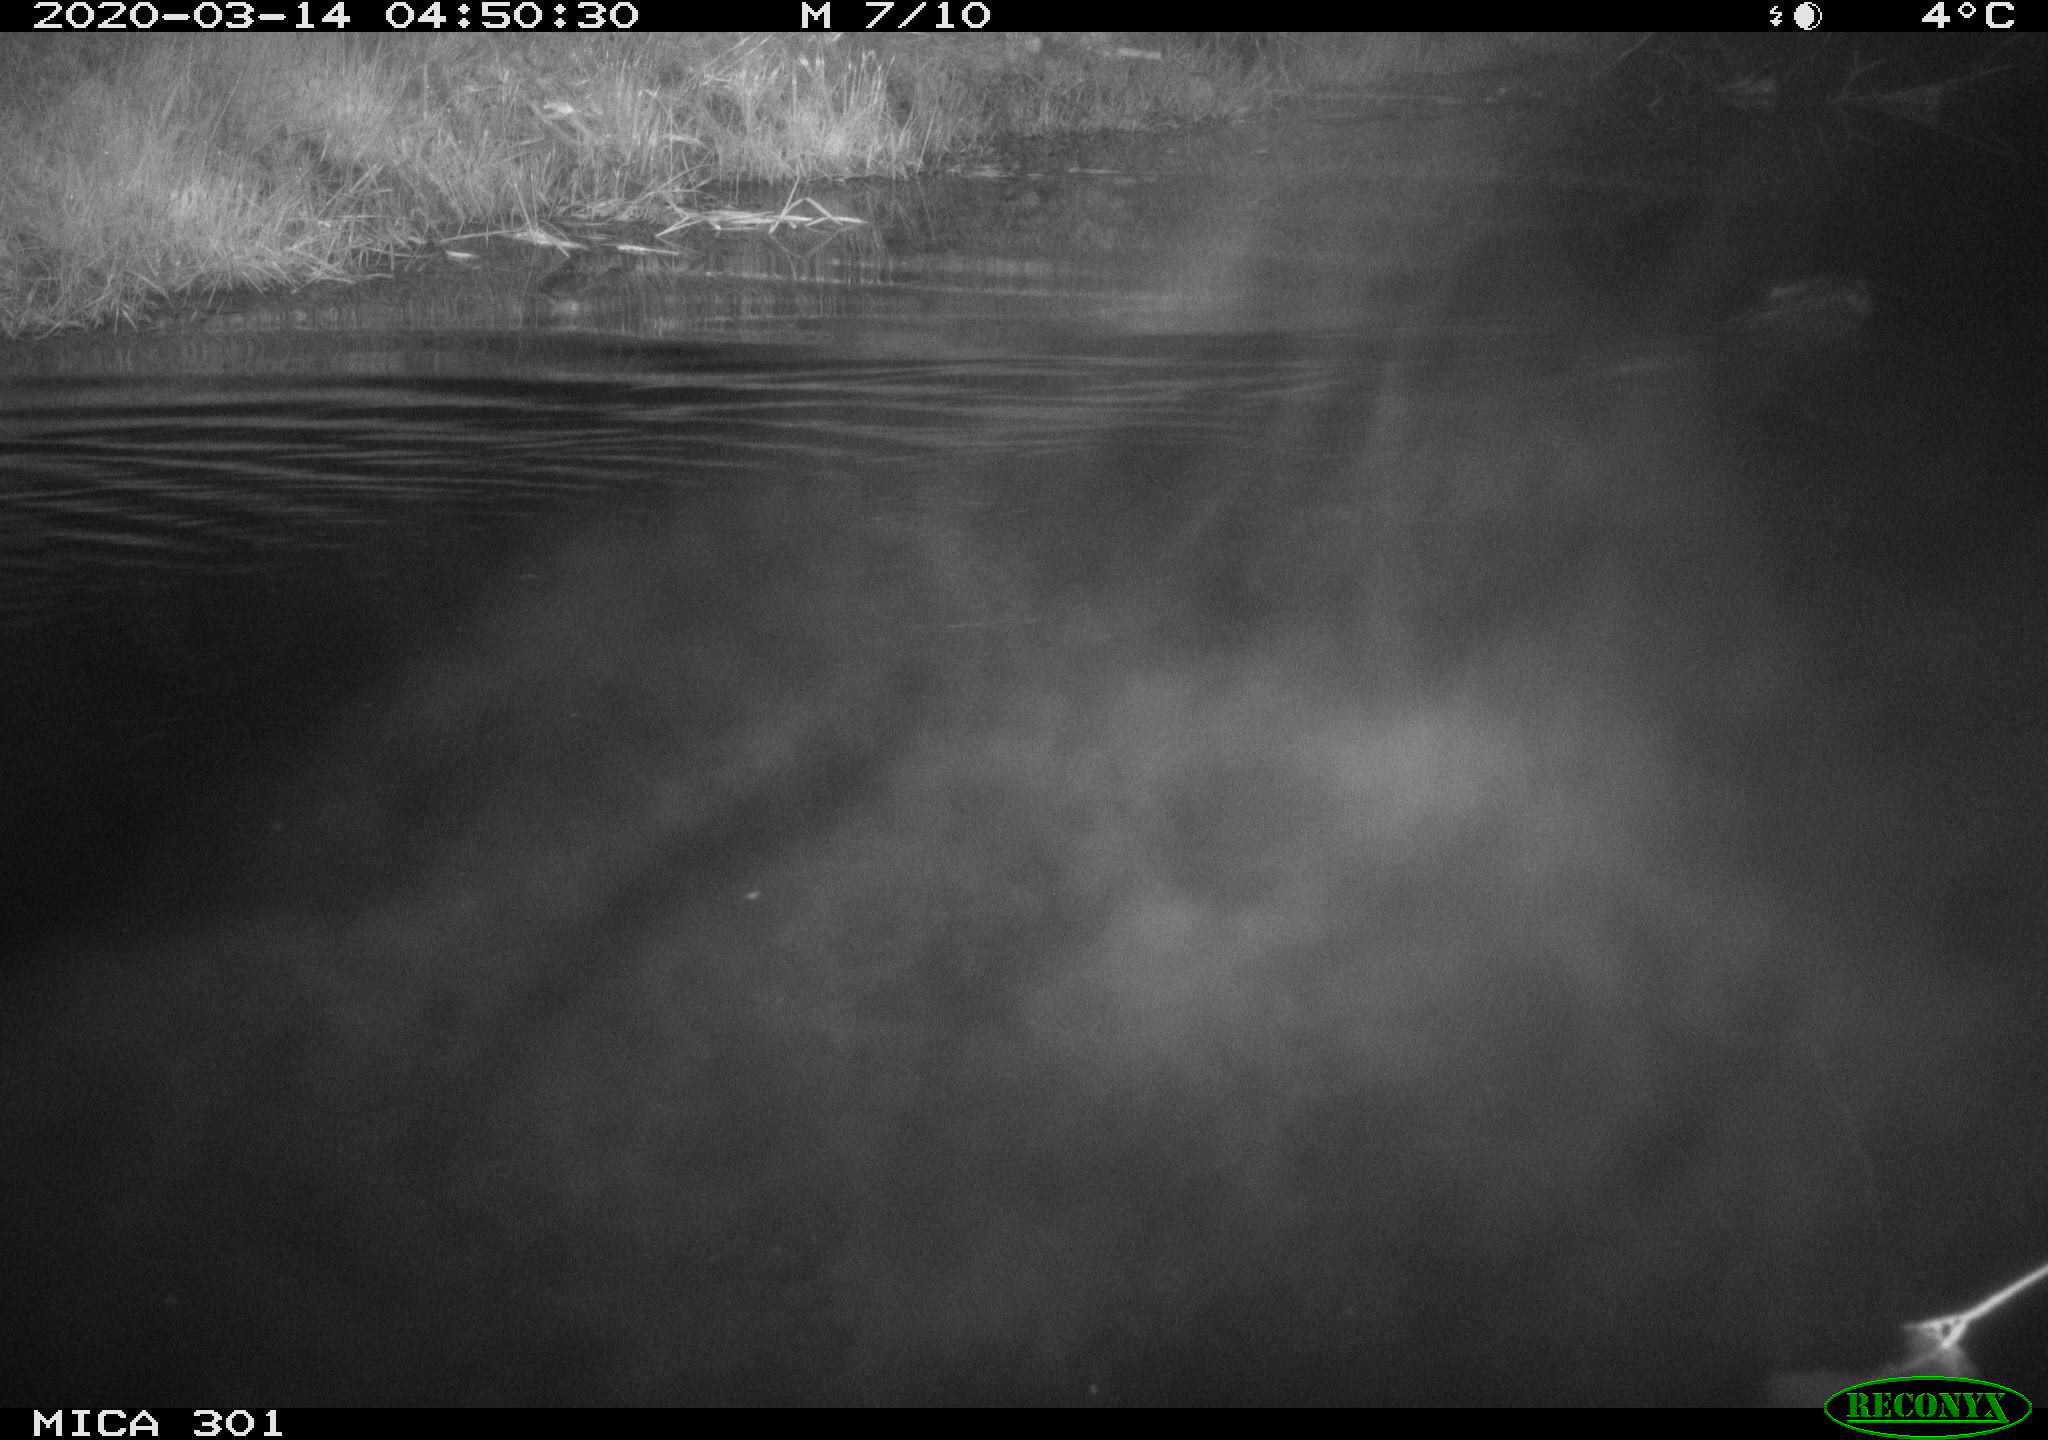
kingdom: Animalia
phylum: Chordata
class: Mammalia
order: Rodentia
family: Castoridae
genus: Castor
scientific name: Castor fiber
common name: Eurasian beaver
